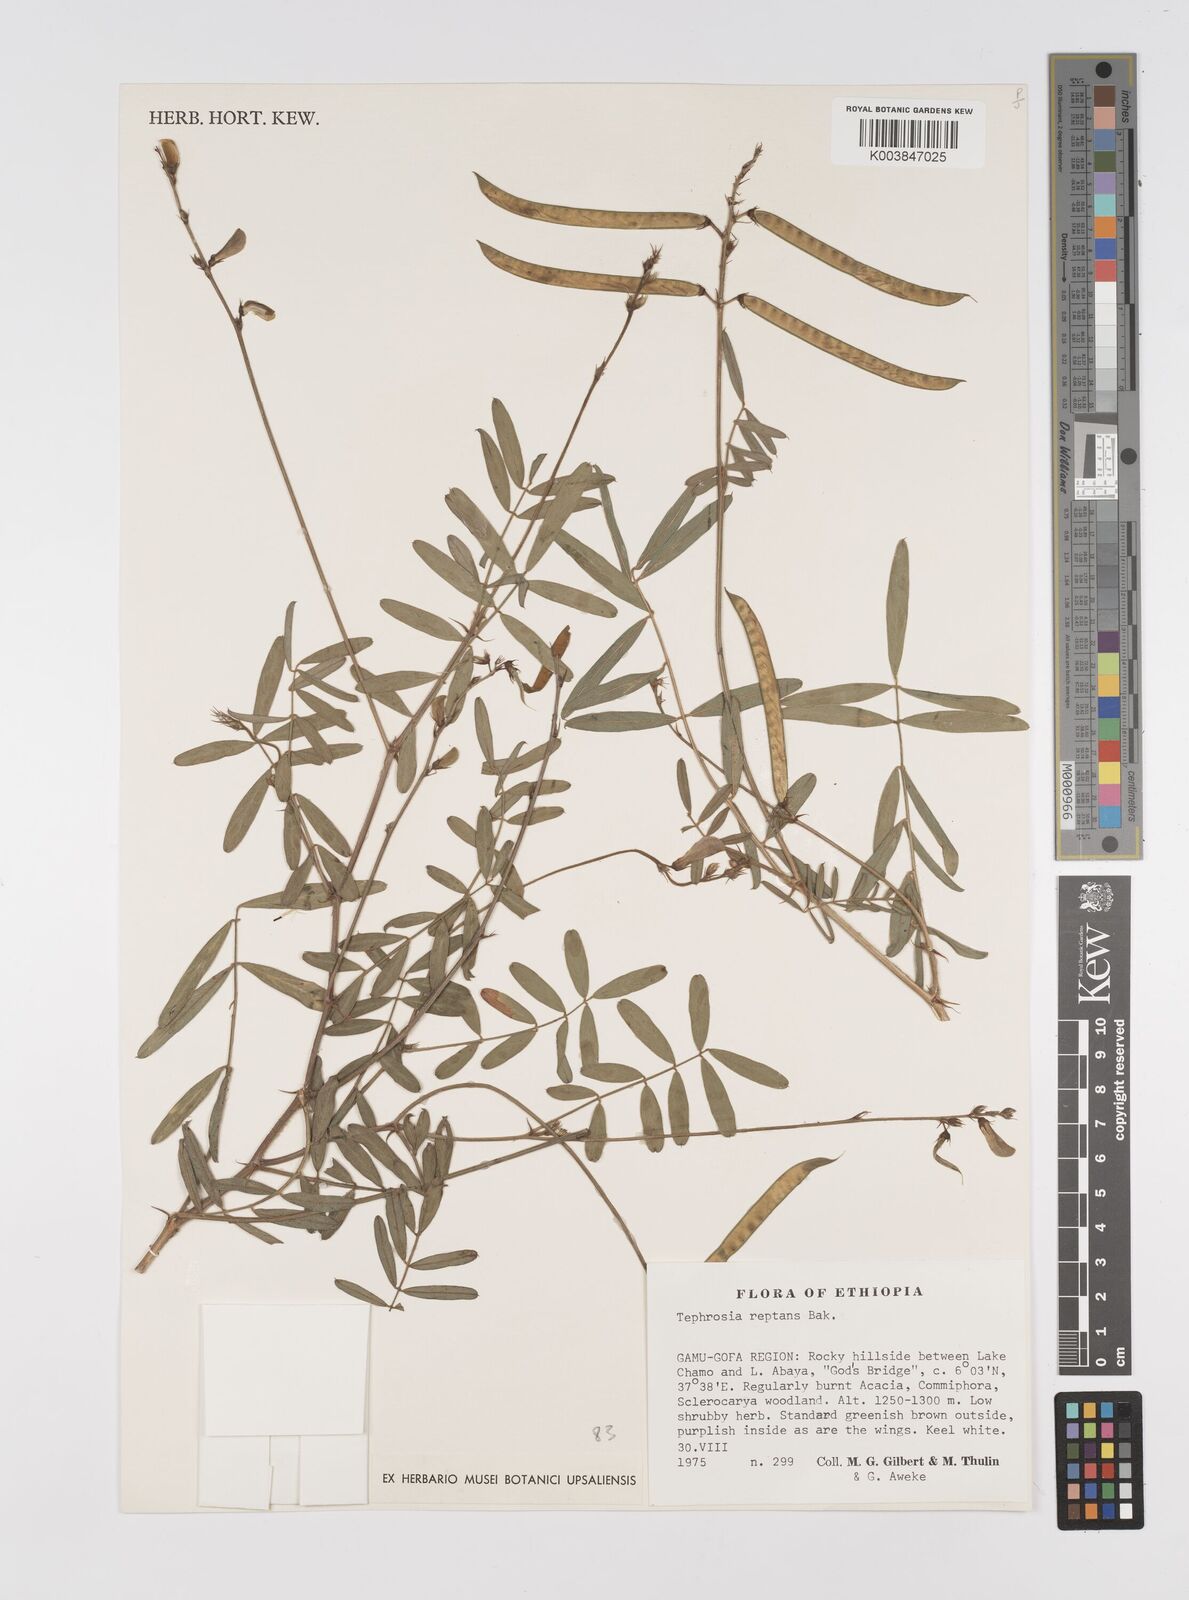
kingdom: Plantae
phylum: Tracheophyta
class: Magnoliopsida
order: Fabales
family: Fabaceae
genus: Tephrosia
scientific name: Tephrosia reptans
